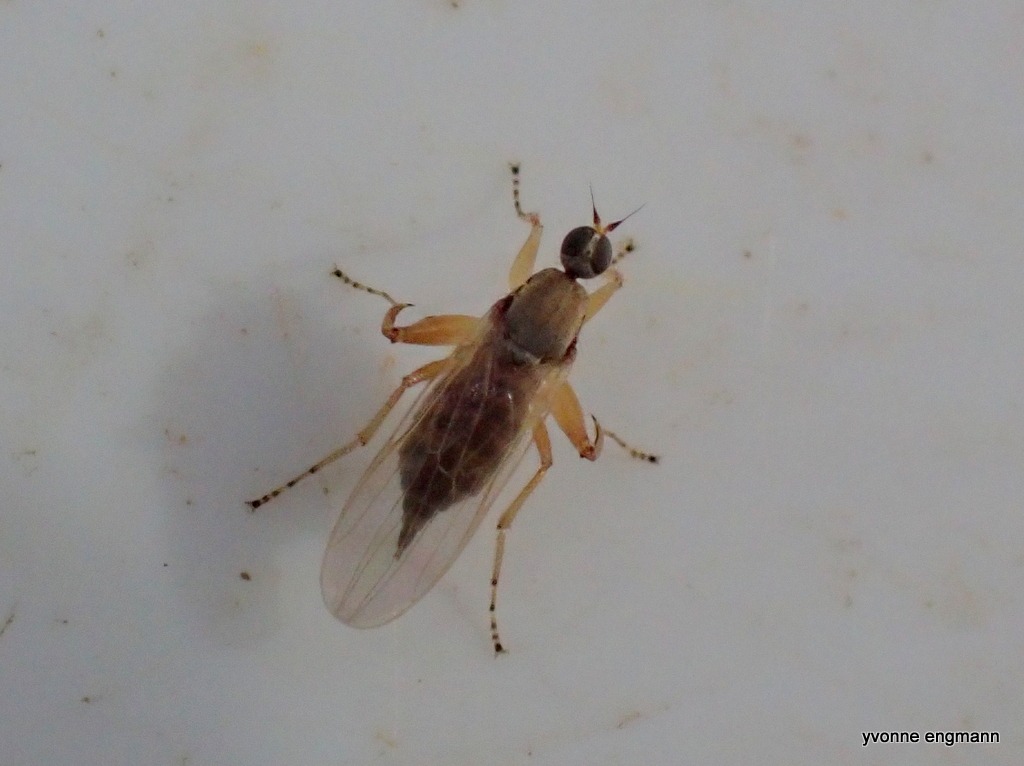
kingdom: Animalia
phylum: Arthropoda
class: Insecta
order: Diptera
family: Hybotidae
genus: Platypalpus
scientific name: Platypalpus
